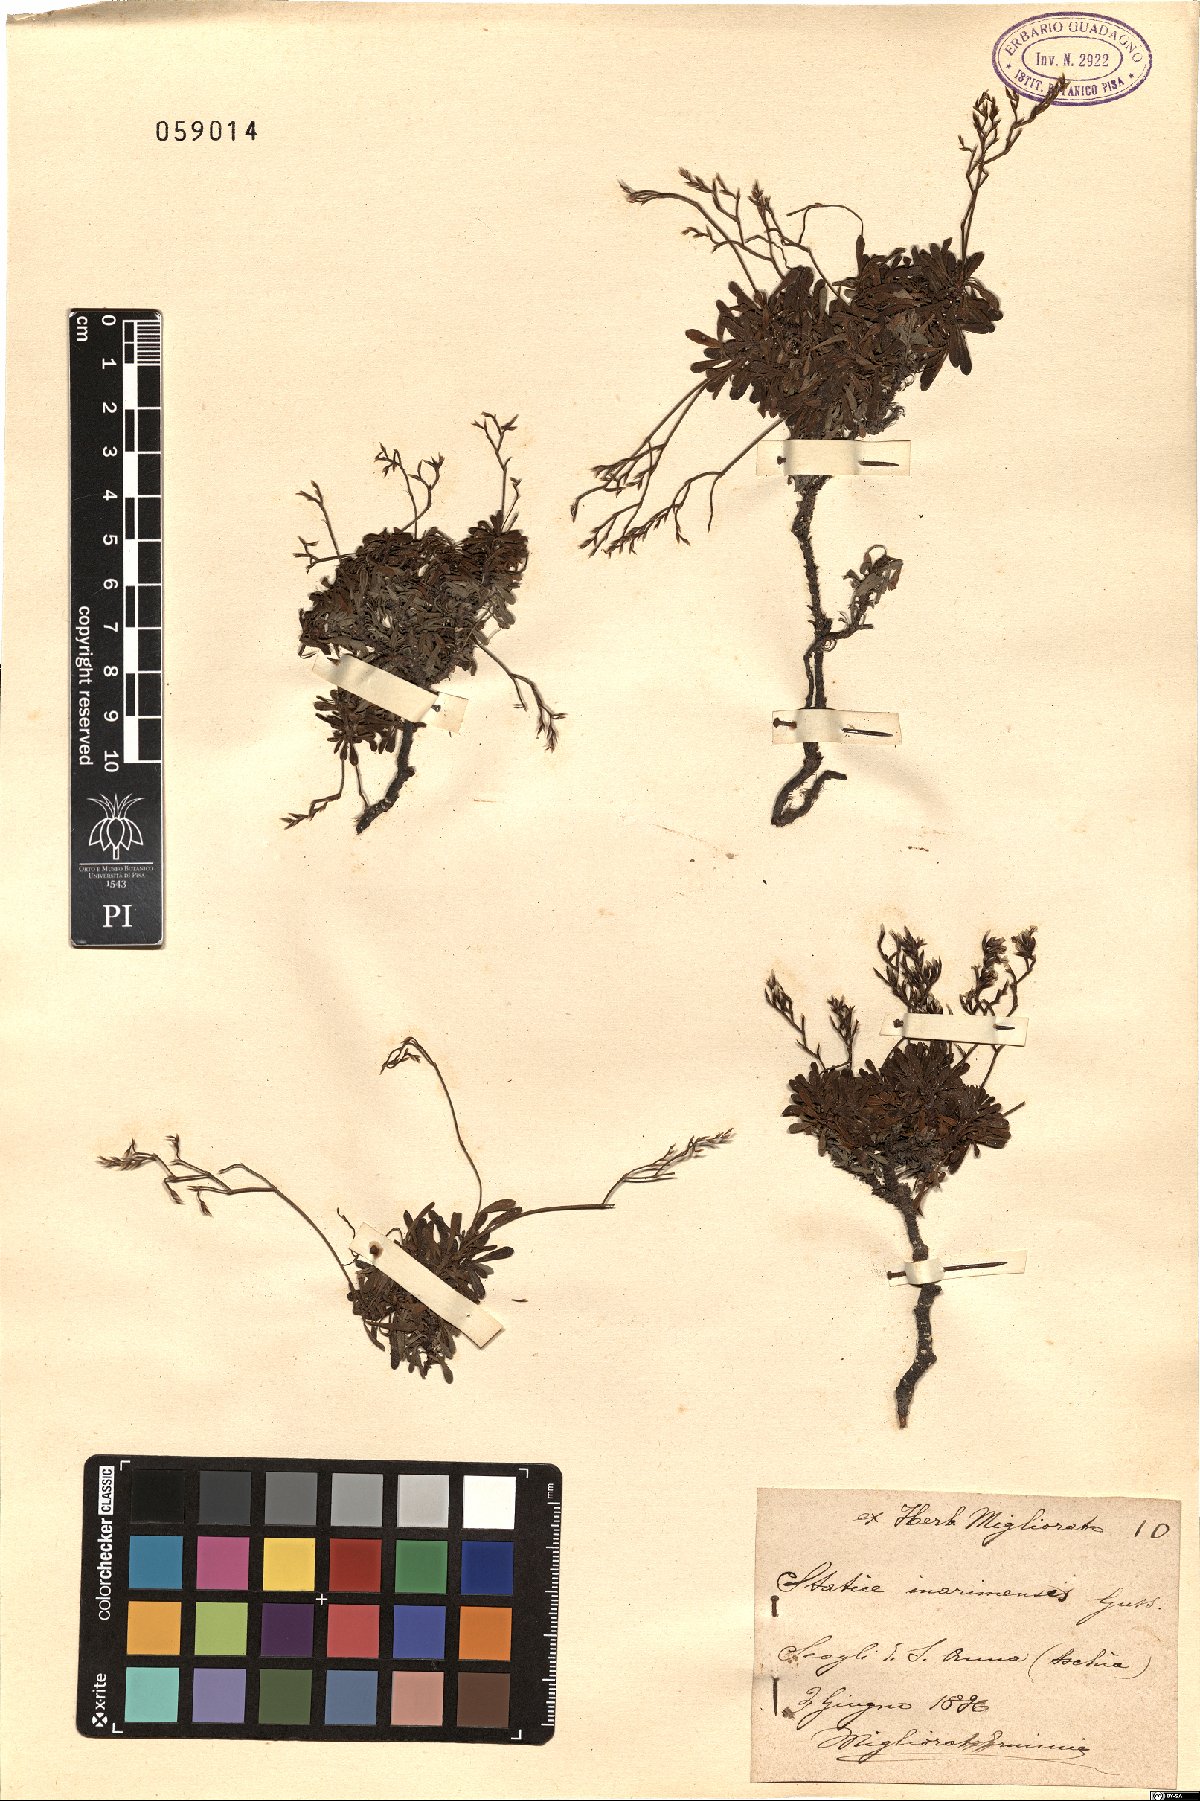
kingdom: Plantae
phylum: Tracheophyta
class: Magnoliopsida
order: Caryophyllales
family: Plumbaginaceae
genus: Limonium
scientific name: Limonium inarimense
